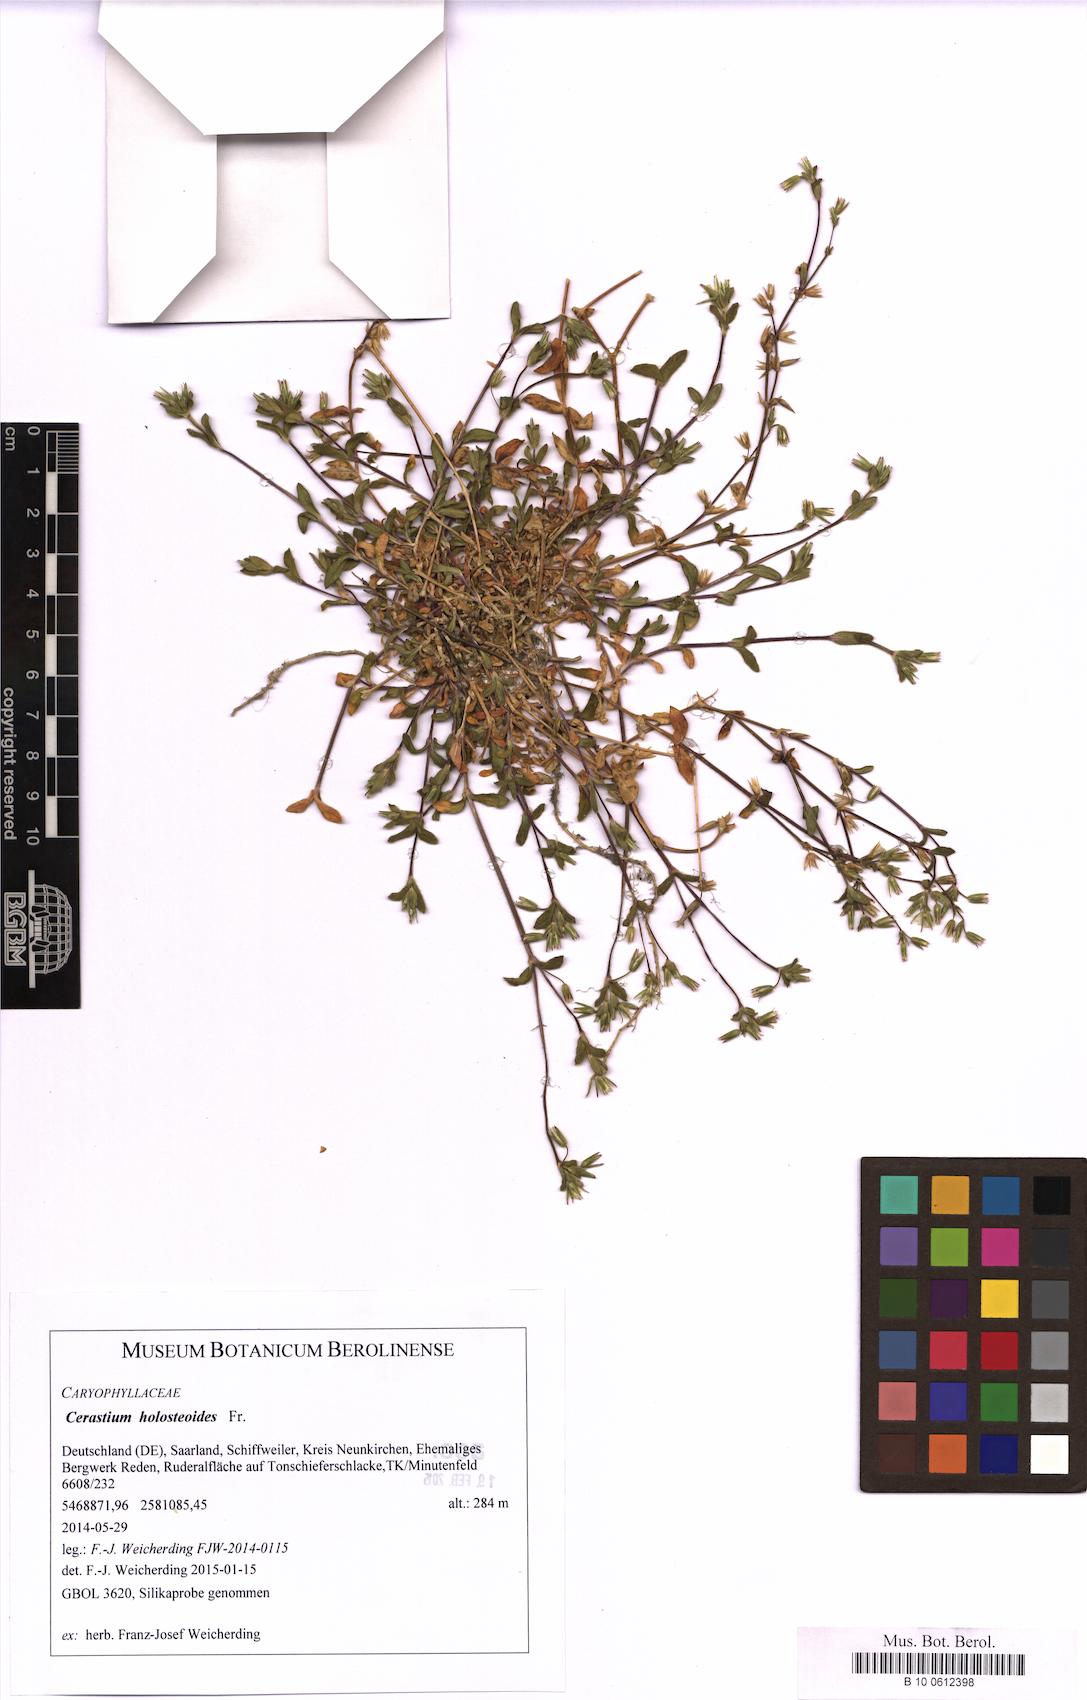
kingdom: Plantae
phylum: Tracheophyta
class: Magnoliopsida
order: Caryophyllales
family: Caryophyllaceae
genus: Cerastium
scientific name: Cerastium holosteoides
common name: Big chickweed
